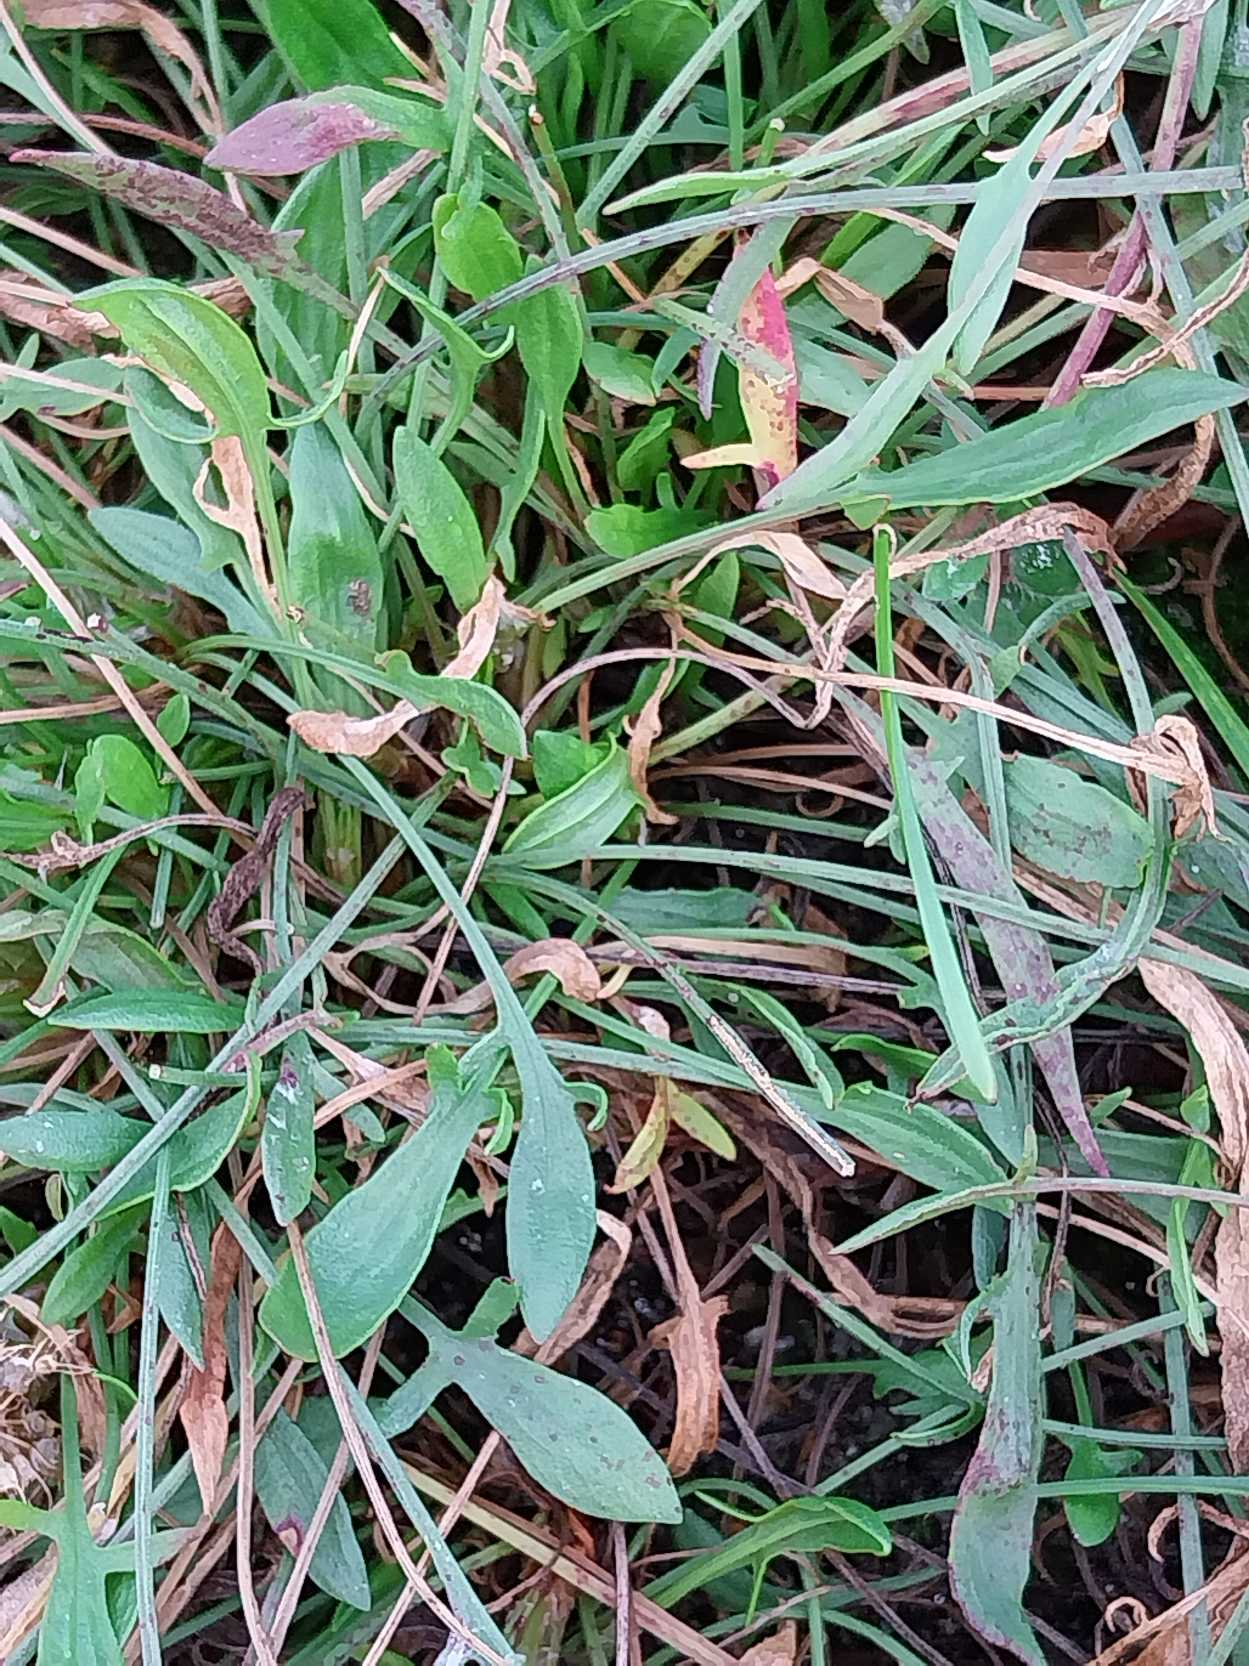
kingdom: Plantae
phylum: Tracheophyta
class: Magnoliopsida
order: Caryophyllales
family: Polygonaceae
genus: Rumex
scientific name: Rumex acetosella
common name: Rødknæ
